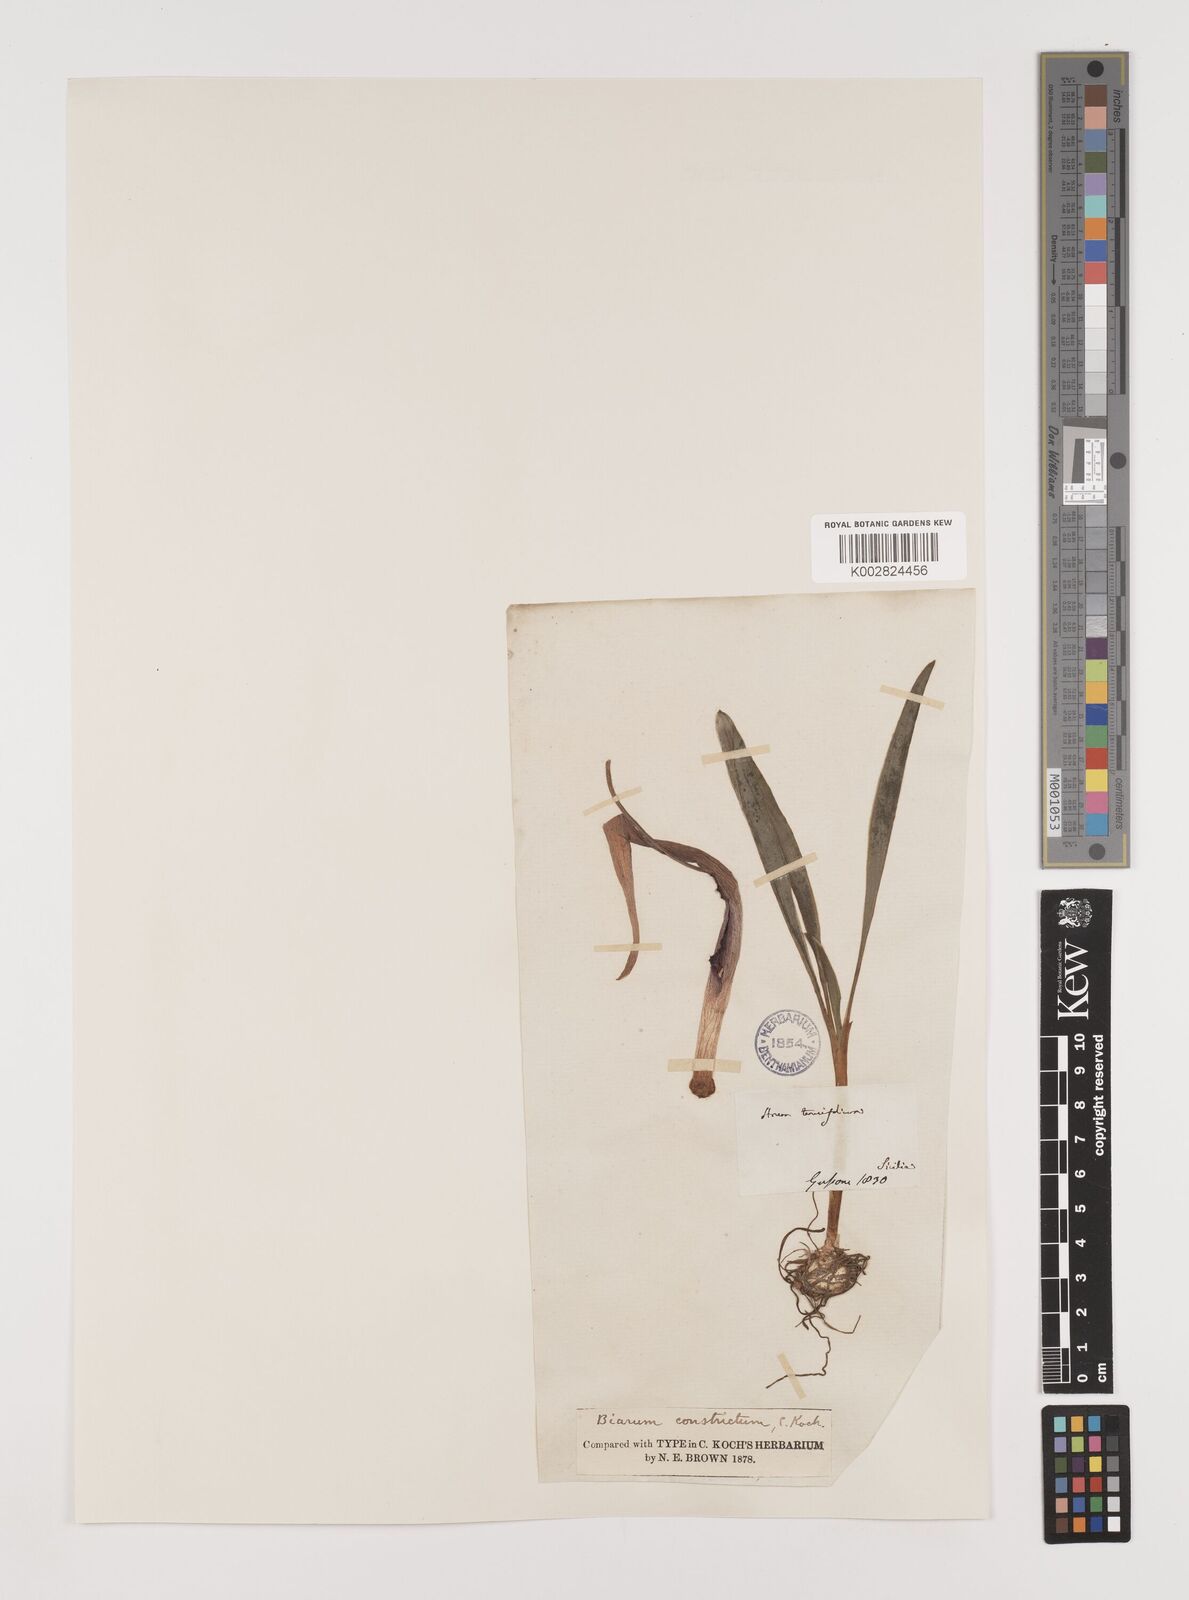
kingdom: Plantae
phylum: Tracheophyta
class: Liliopsida
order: Alismatales
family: Araceae
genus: Biarum
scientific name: Biarum tenuifolium
